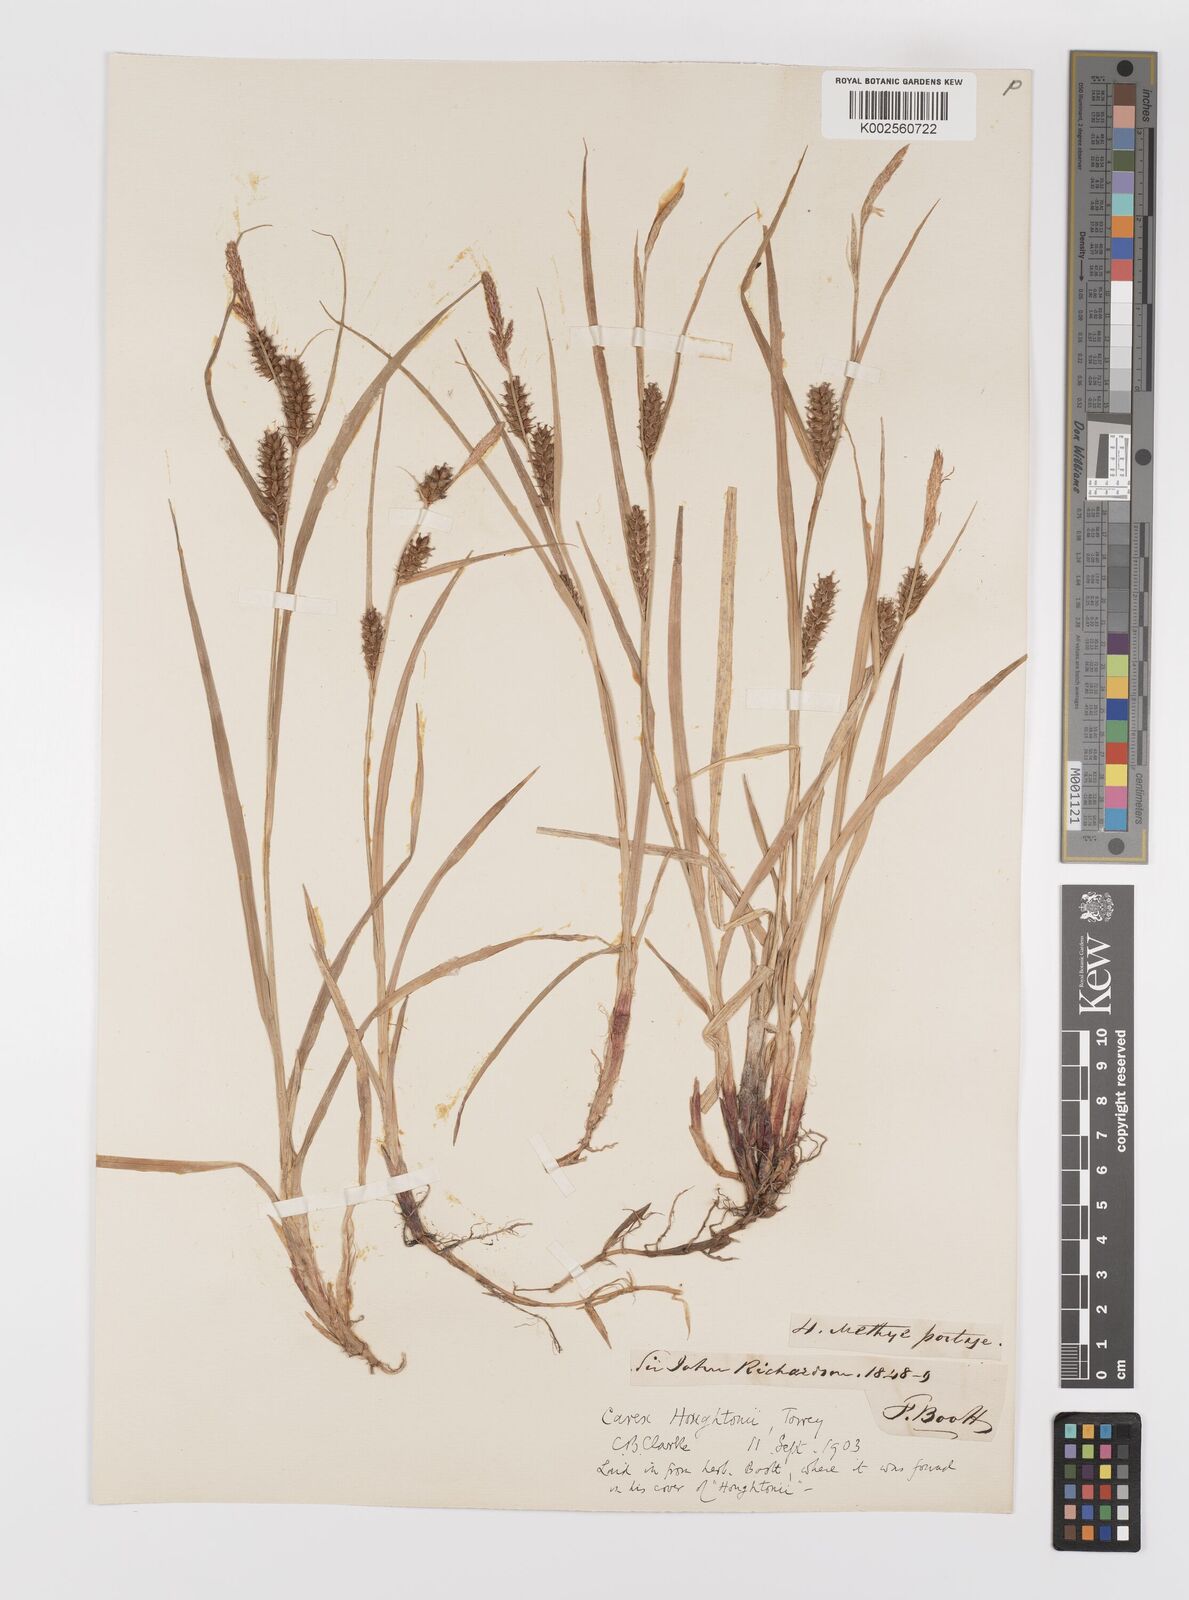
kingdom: Plantae
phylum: Tracheophyta
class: Liliopsida
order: Poales
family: Cyperaceae
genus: Carex
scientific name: Carex houghtoniana
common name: Houghton's sedge
